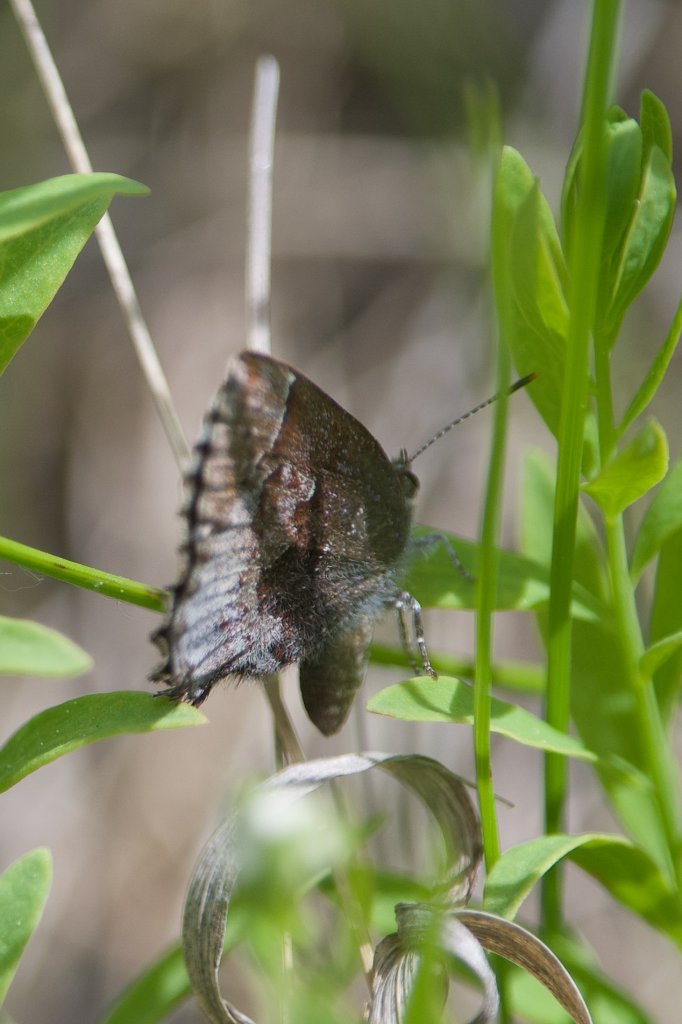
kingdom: Animalia
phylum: Arthropoda
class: Insecta
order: Lepidoptera
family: Lycaenidae
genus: Callophrys
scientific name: Callophrys polios
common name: Hoary Elfin
